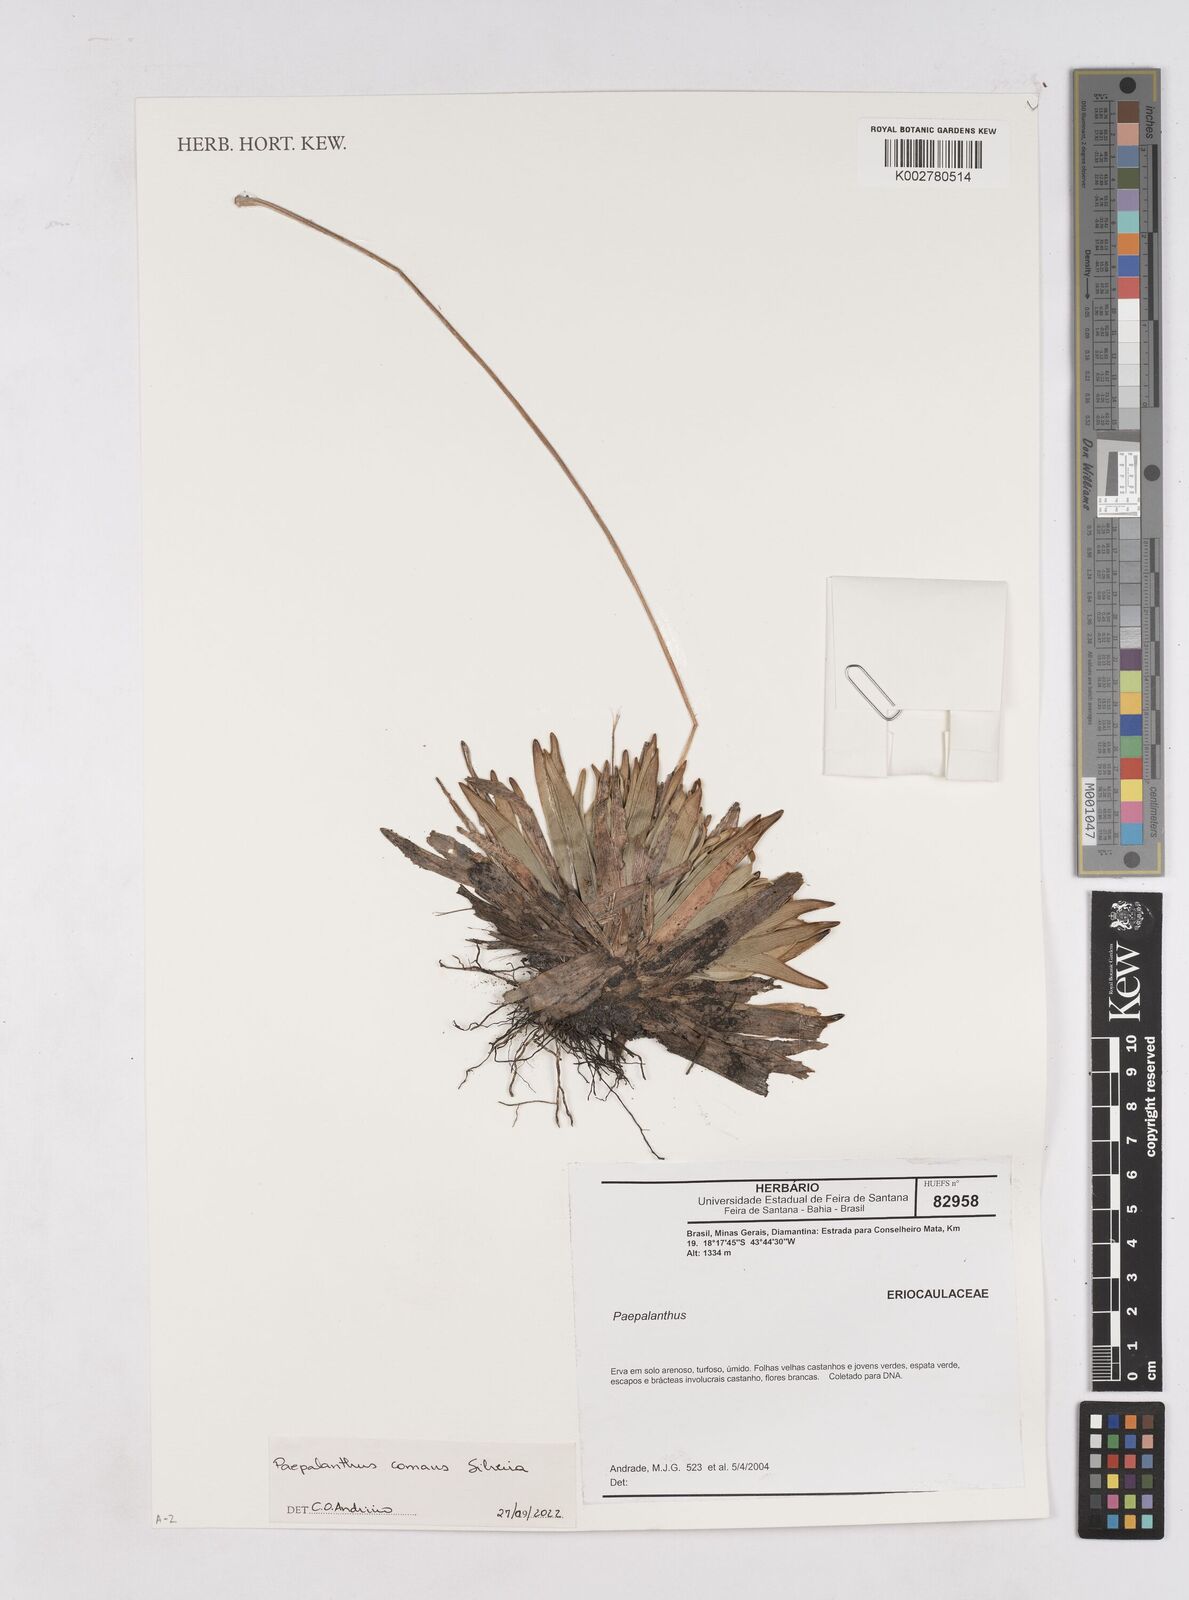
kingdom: Plantae
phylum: Tracheophyta
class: Liliopsida
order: Poales
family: Eriocaulaceae
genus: Paepalanthus
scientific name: Paepalanthus comans
